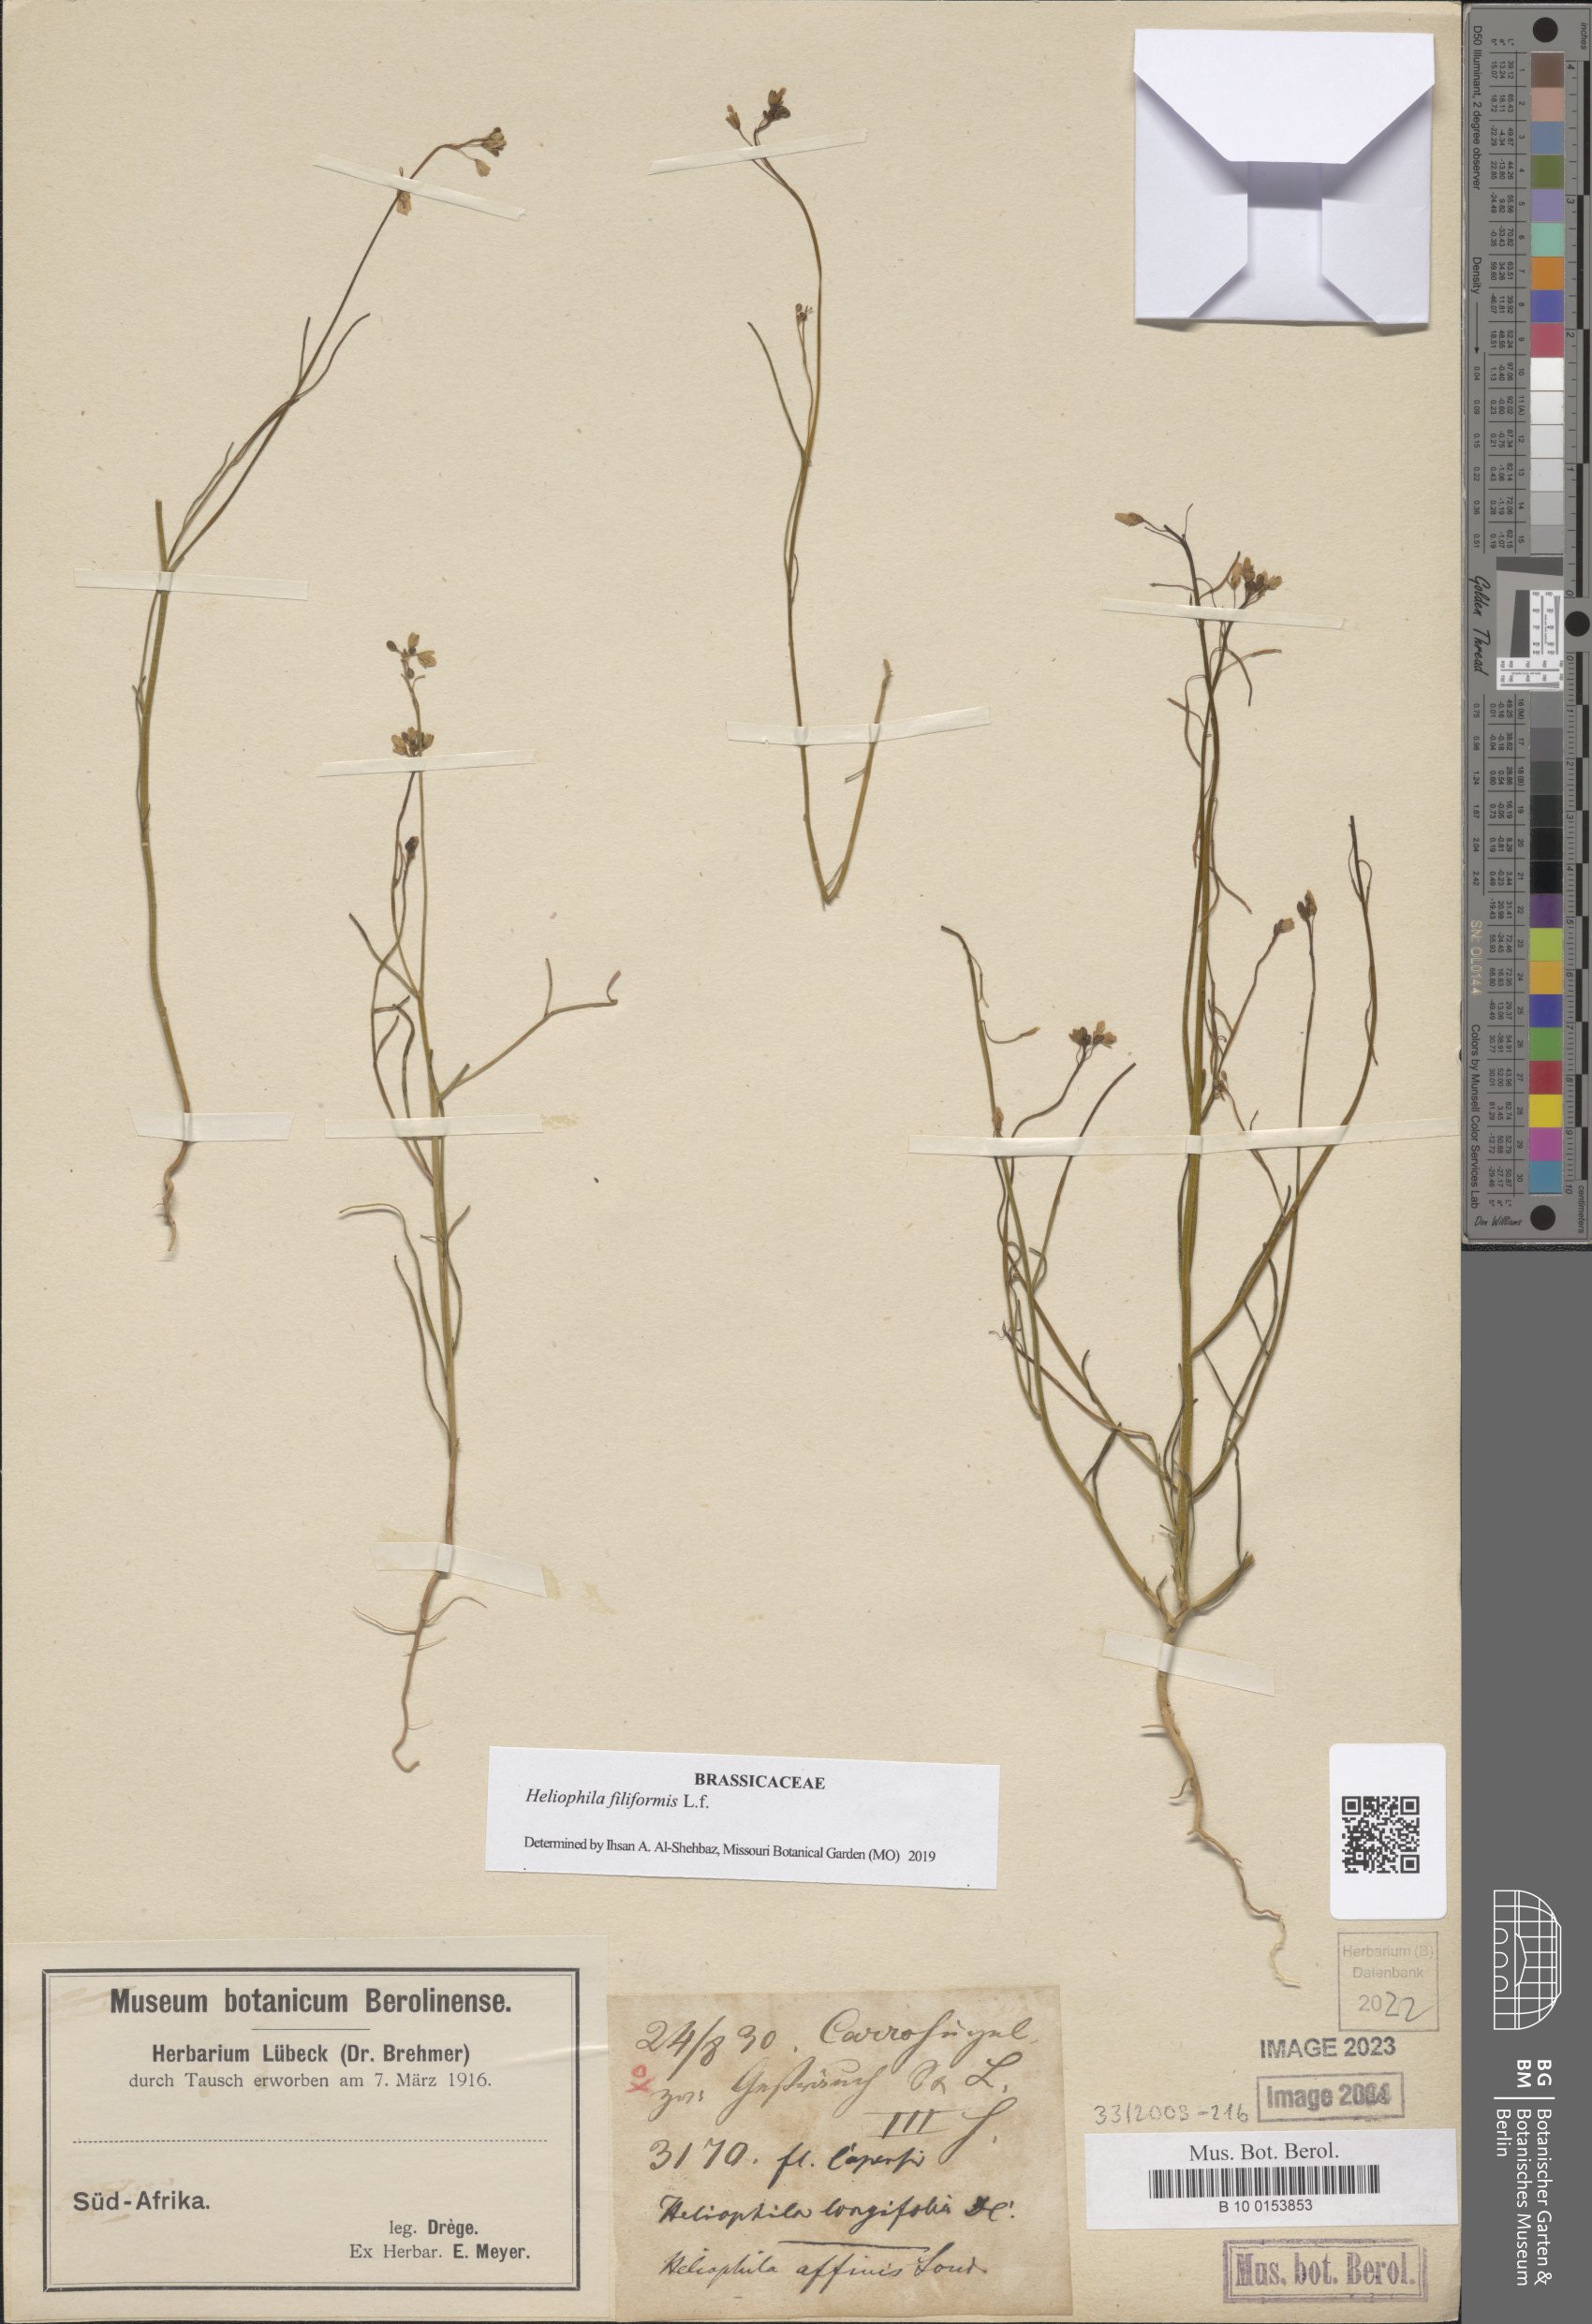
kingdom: Plantae
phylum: Tracheophyta
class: Magnoliopsida
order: Brassicales
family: Brassicaceae
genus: Heliophila
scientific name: Heliophila coronopifolia
